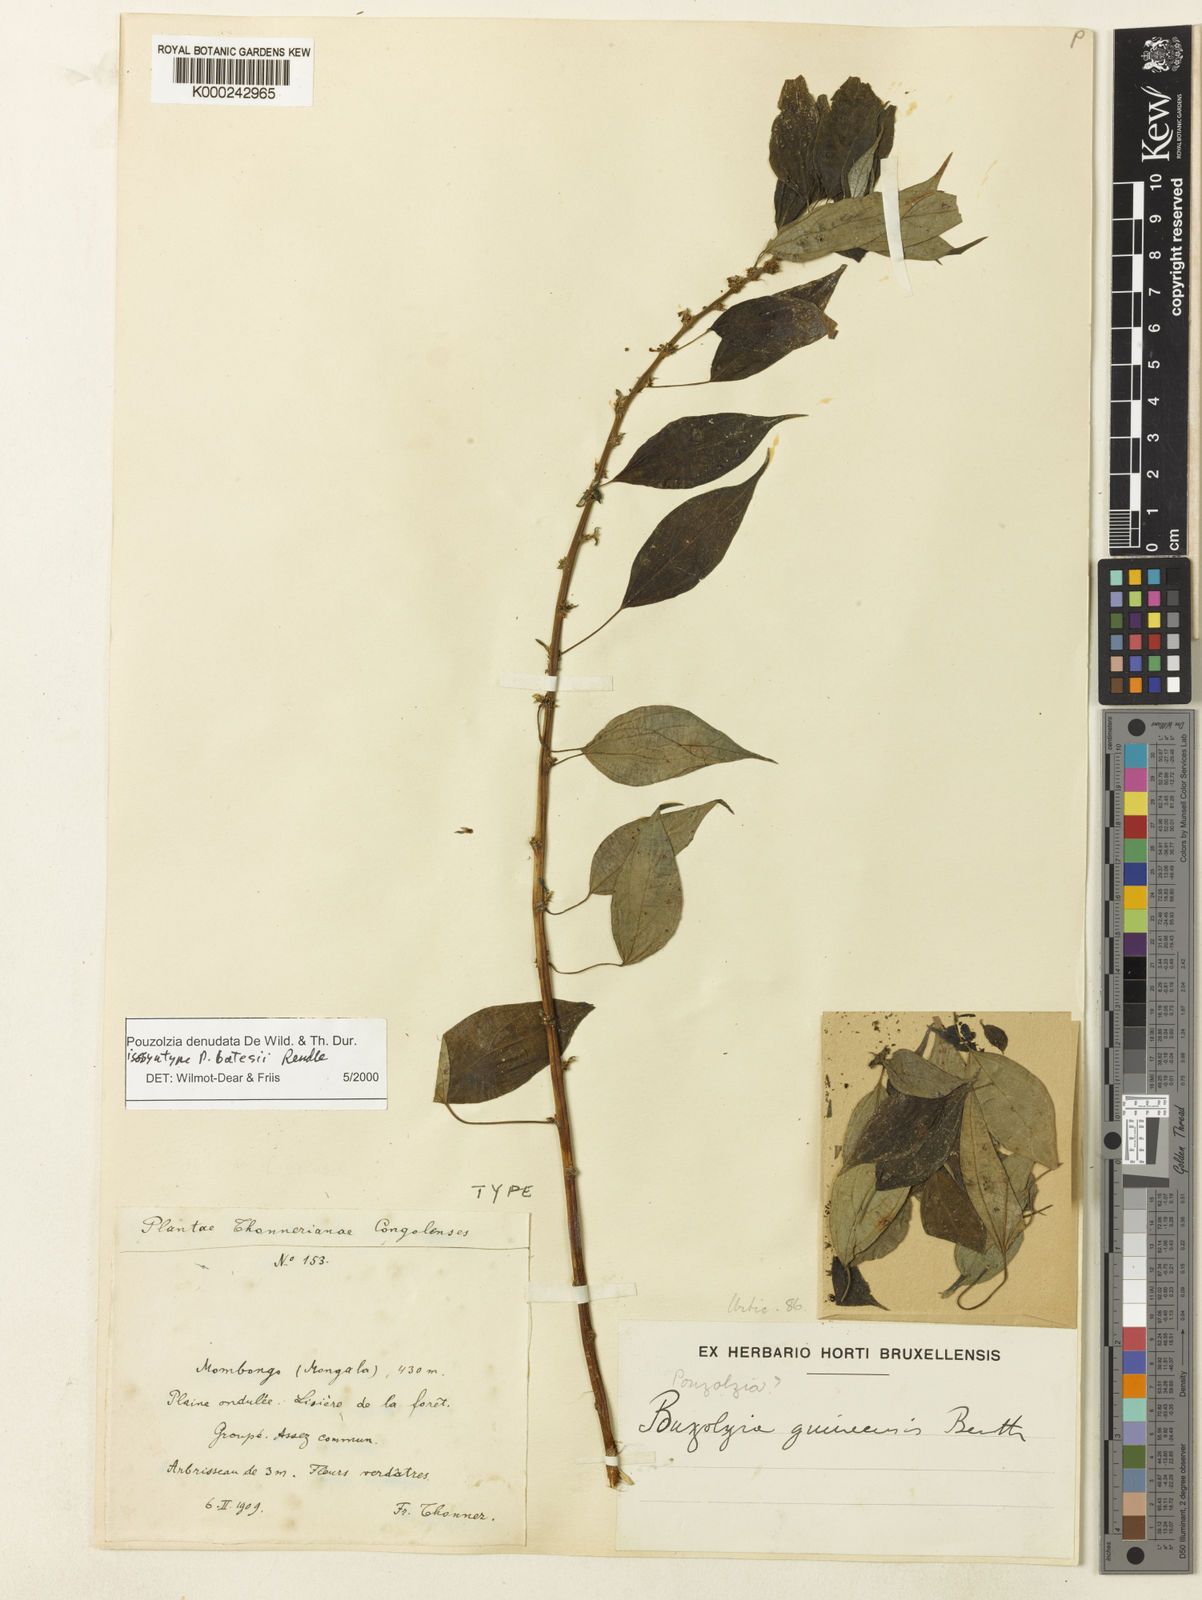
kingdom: Plantae
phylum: Tracheophyta
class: Magnoliopsida
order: Rosales
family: Urticaceae
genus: Pouzolzia
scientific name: Pouzolzia denudata
